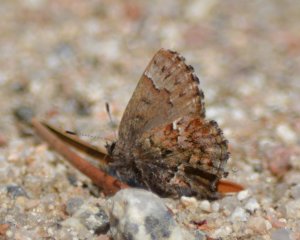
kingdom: Animalia
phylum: Arthropoda
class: Insecta
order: Lepidoptera
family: Lycaenidae
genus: Incisalia
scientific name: Incisalia lanoraieensis
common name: Bog Elfin
